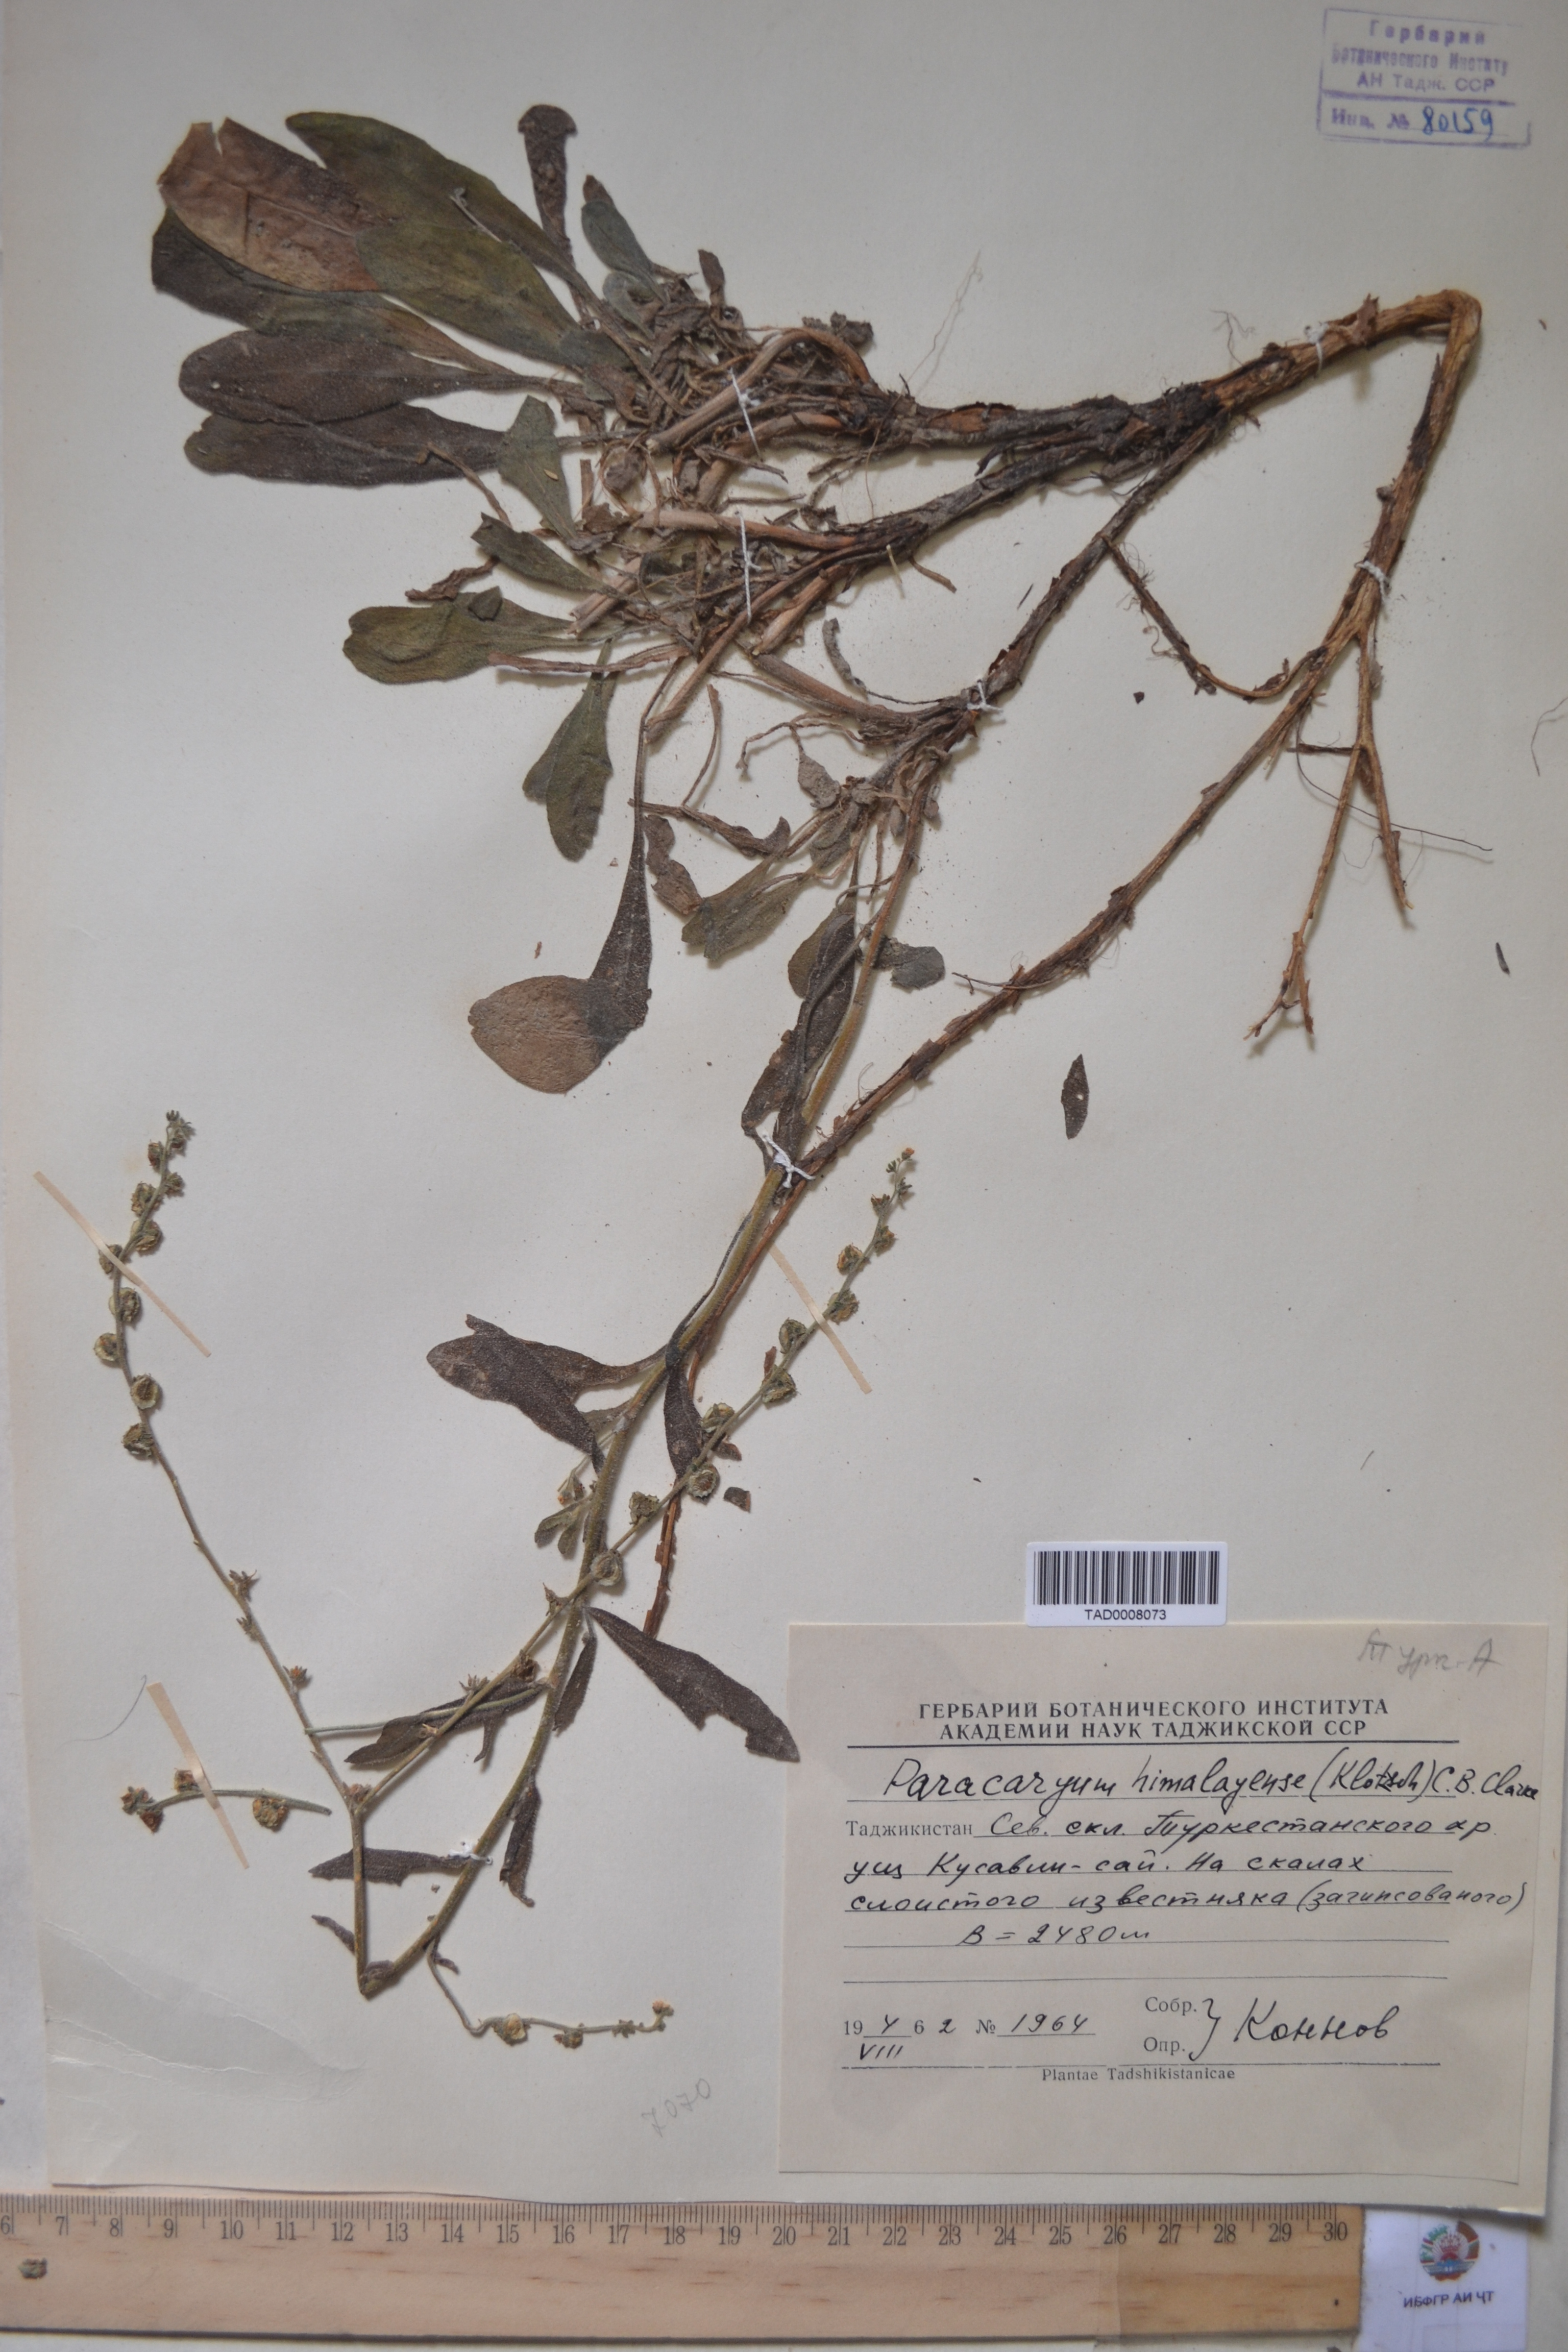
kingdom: Plantae
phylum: Tracheophyta
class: Magnoliopsida
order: Boraginales
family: Boraginaceae
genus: Paracaryum
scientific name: Paracaryum himalayense
